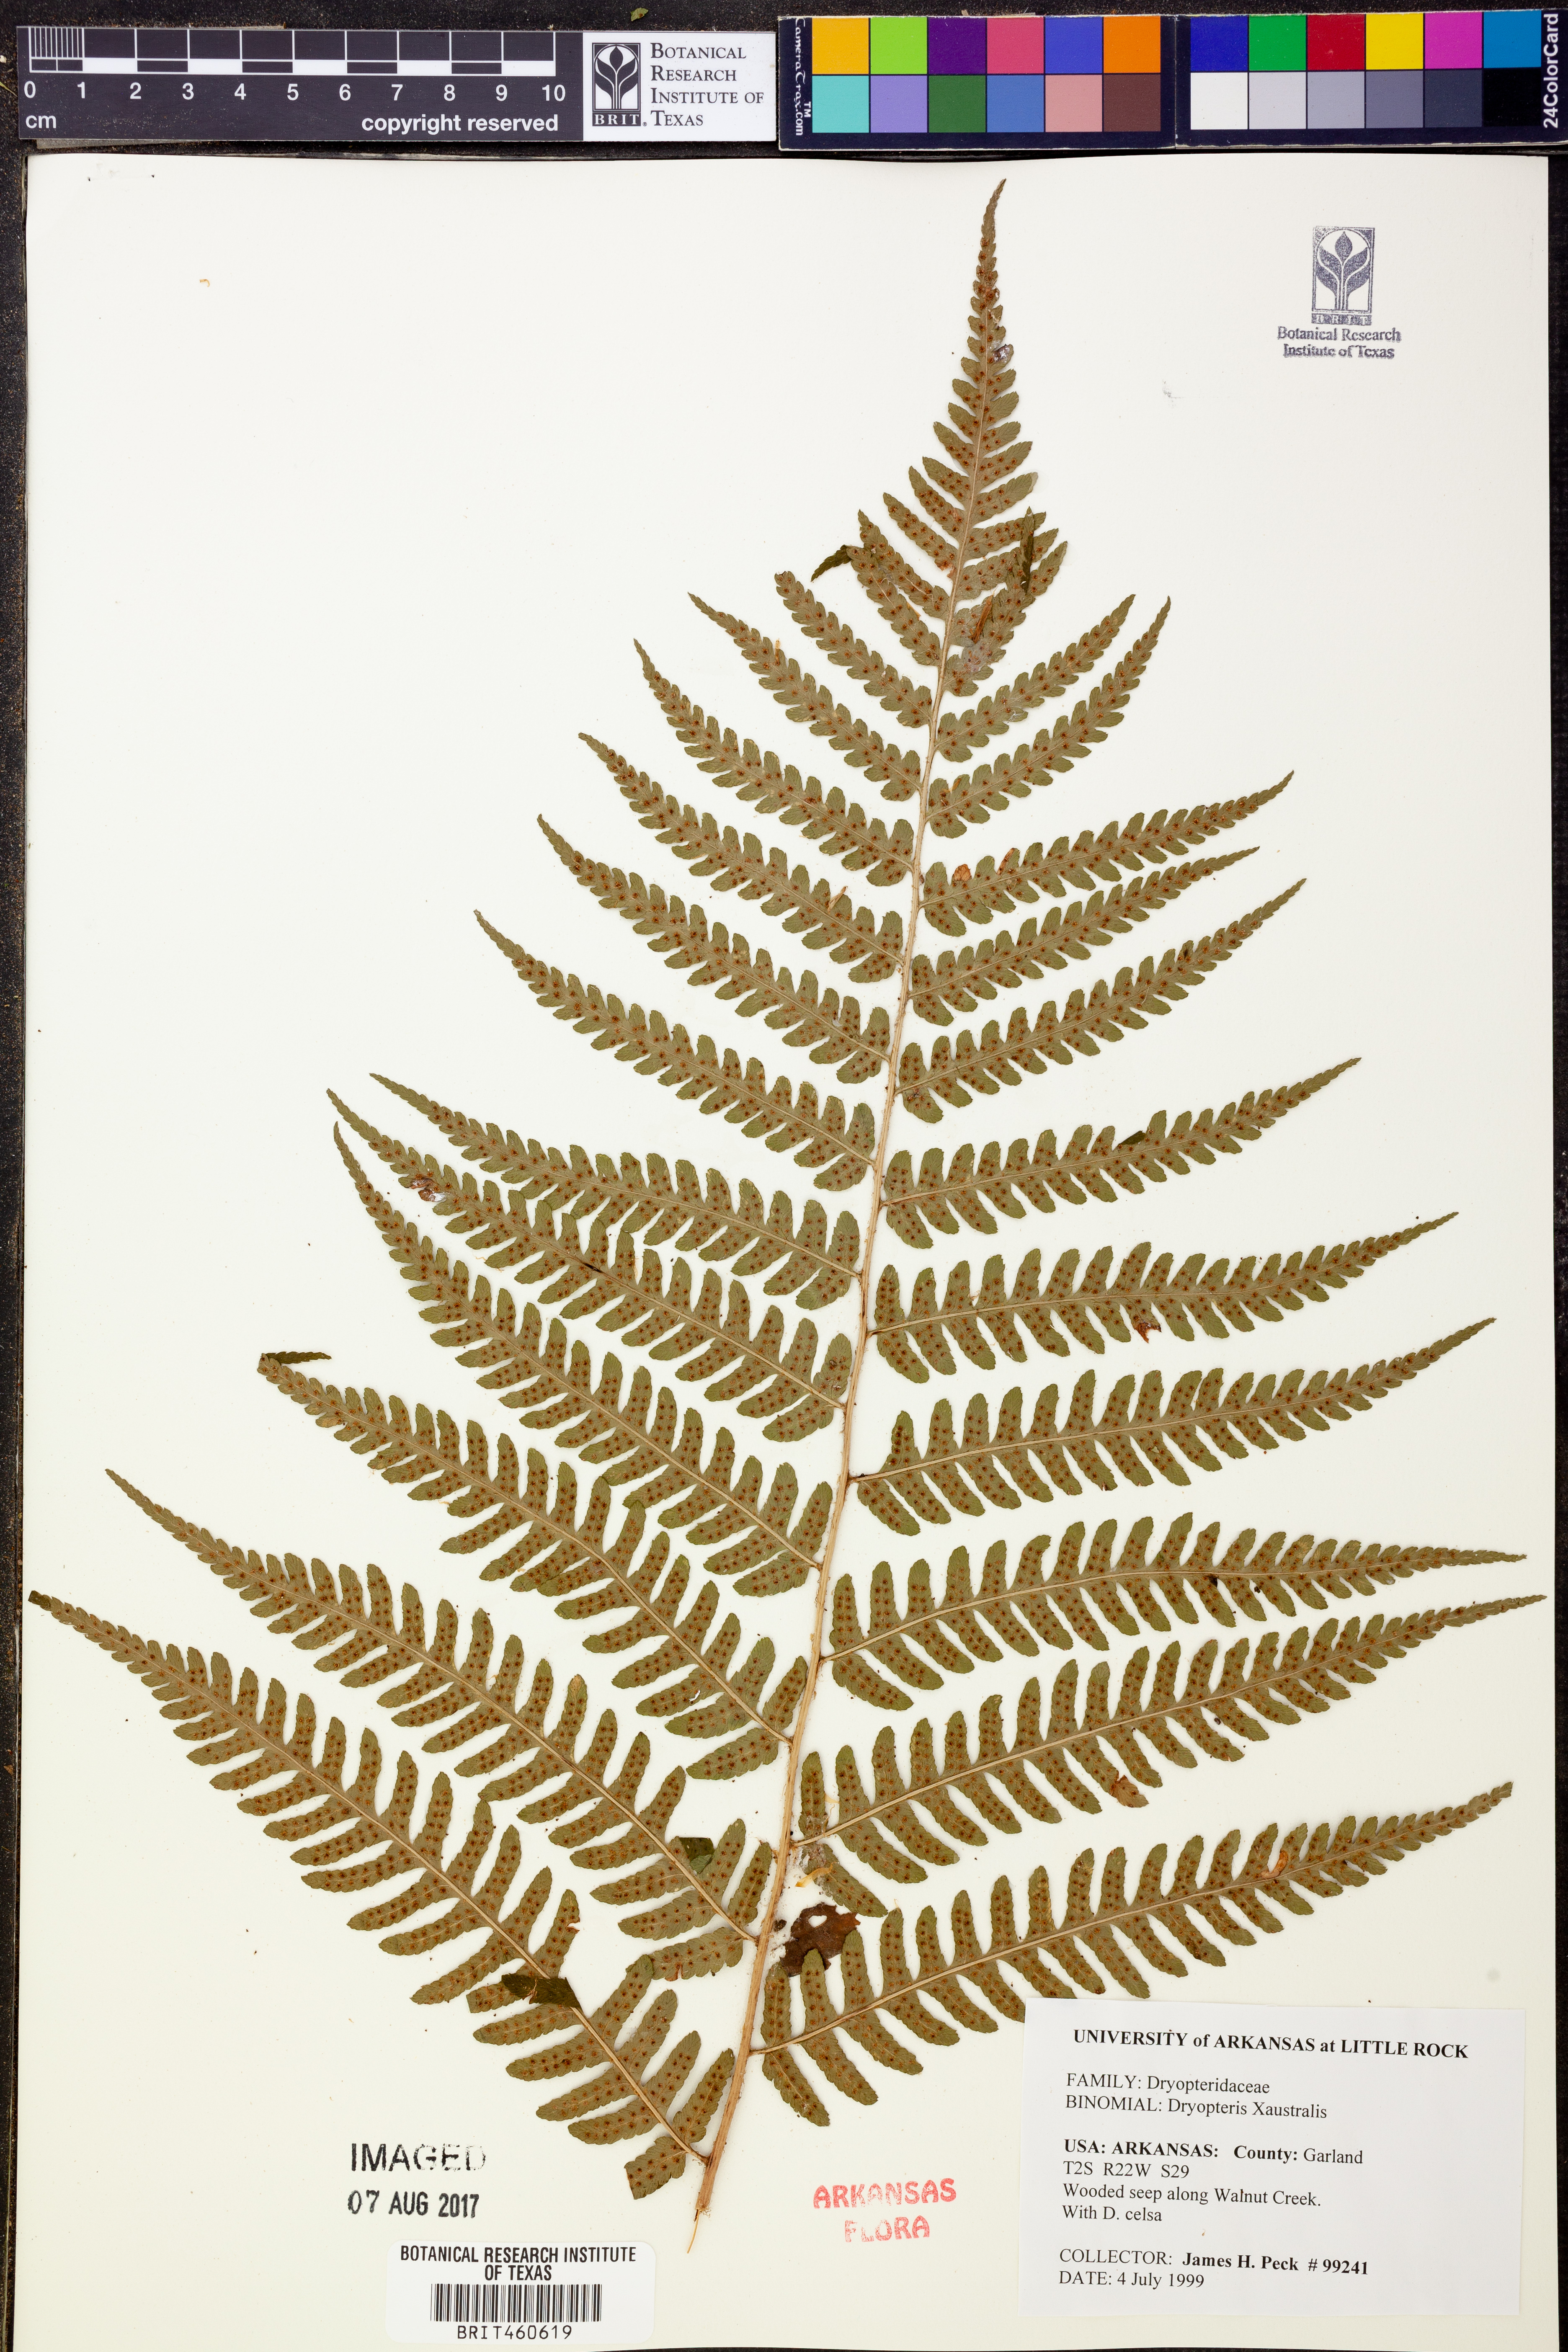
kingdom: Plantae
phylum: Tracheophyta
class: Polypodiopsida
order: Polypodiales
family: Dryopteridaceae
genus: Dryopteris
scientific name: Dryopteris
